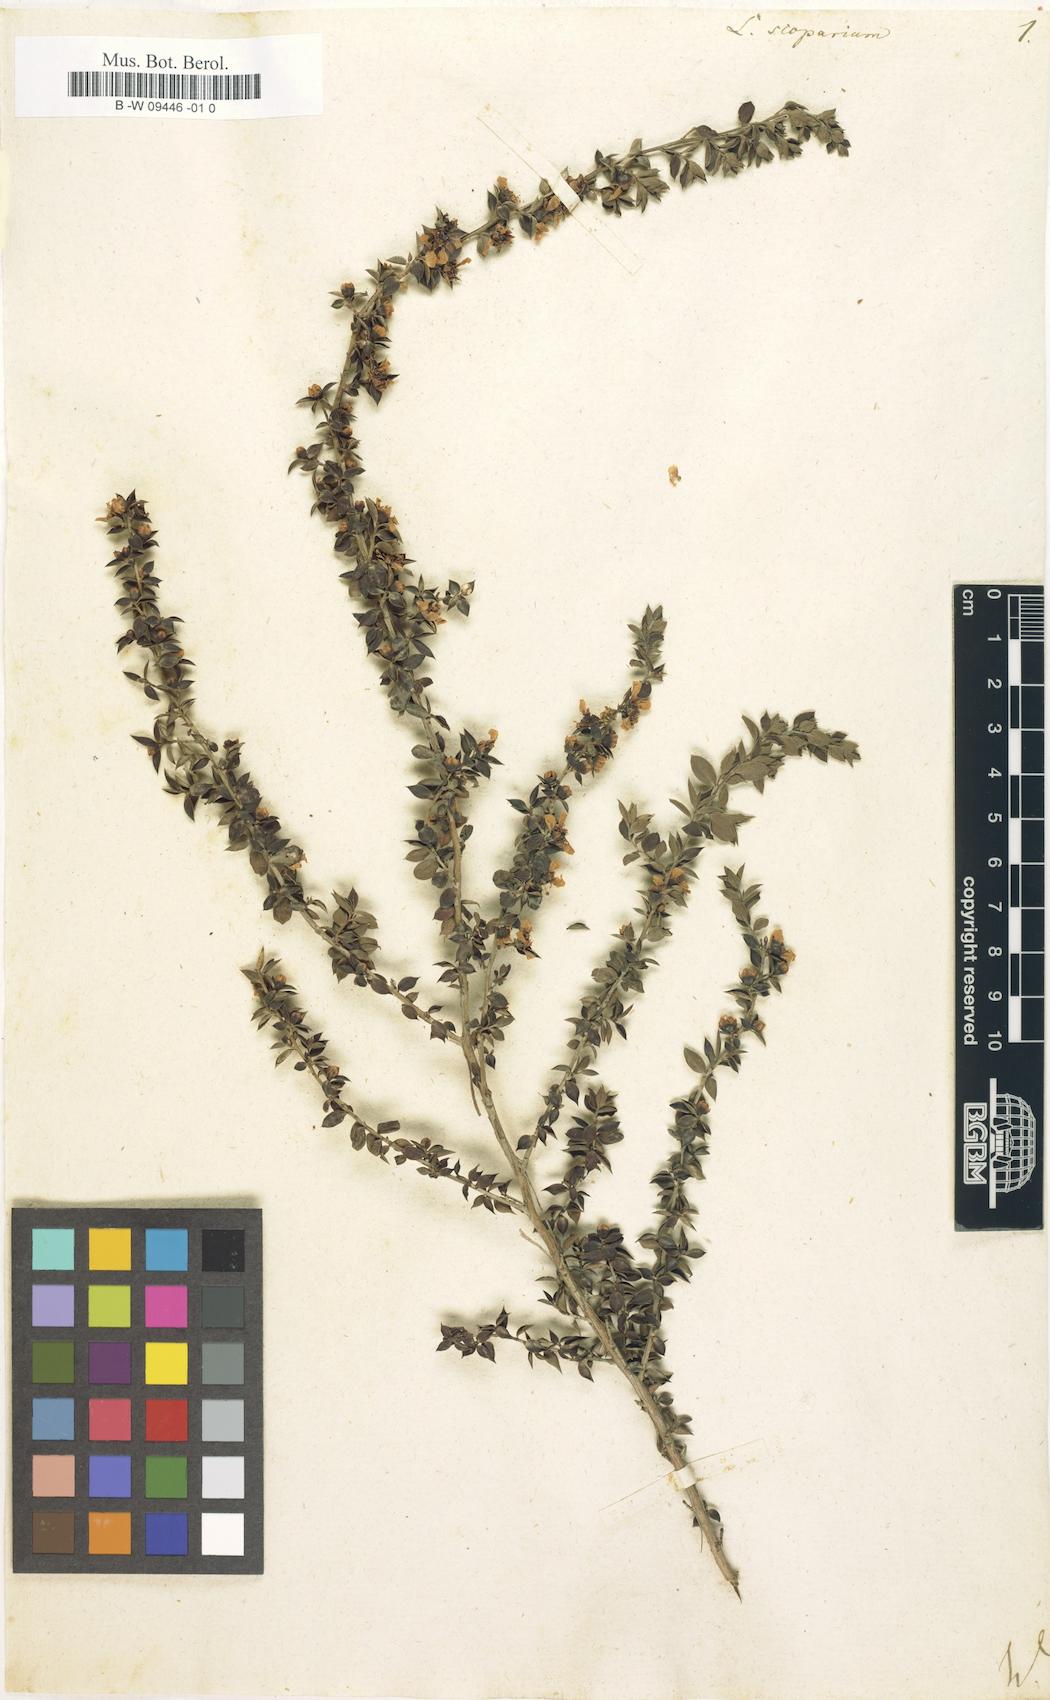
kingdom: Plantae
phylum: Tracheophyta
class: Magnoliopsida
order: Myrtales
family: Myrtaceae
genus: Leptospermum
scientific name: Leptospermum scoparium
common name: Broom tea-tree
